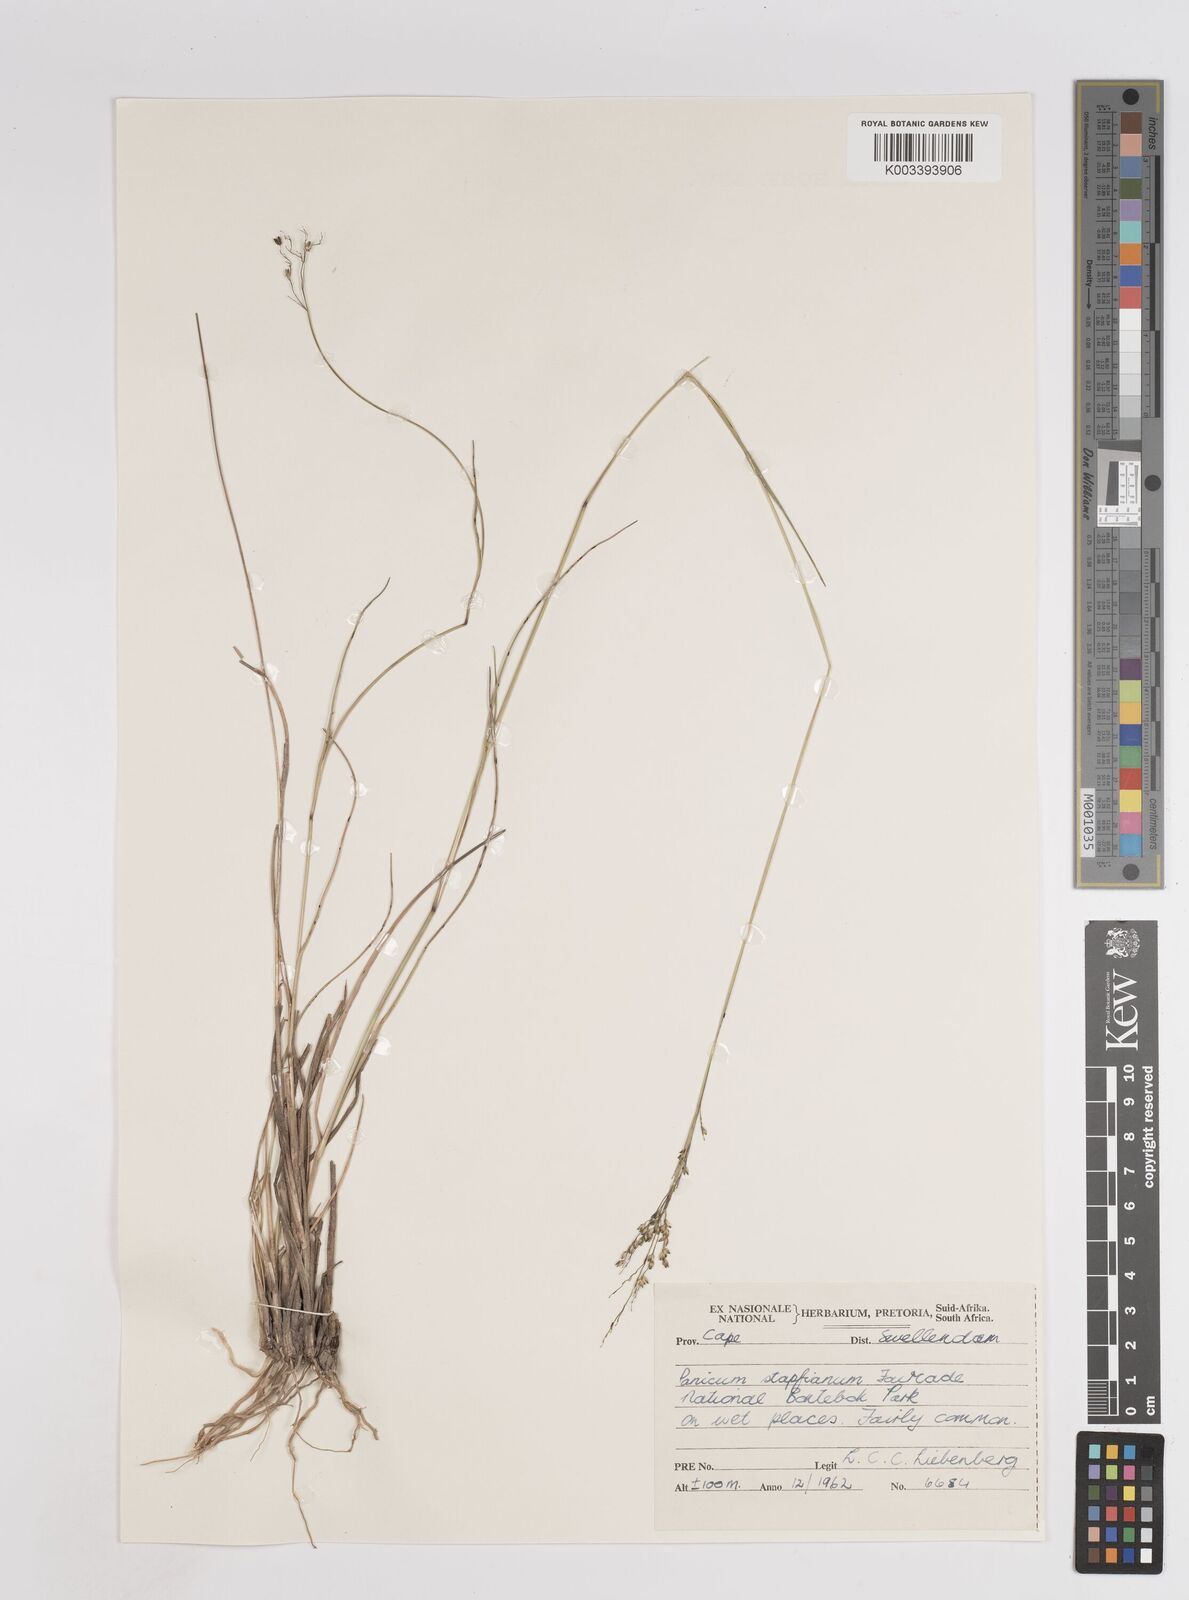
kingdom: Plantae
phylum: Tracheophyta
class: Liliopsida
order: Poales
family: Poaceae
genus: Panicum
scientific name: Panicum stapfianum
